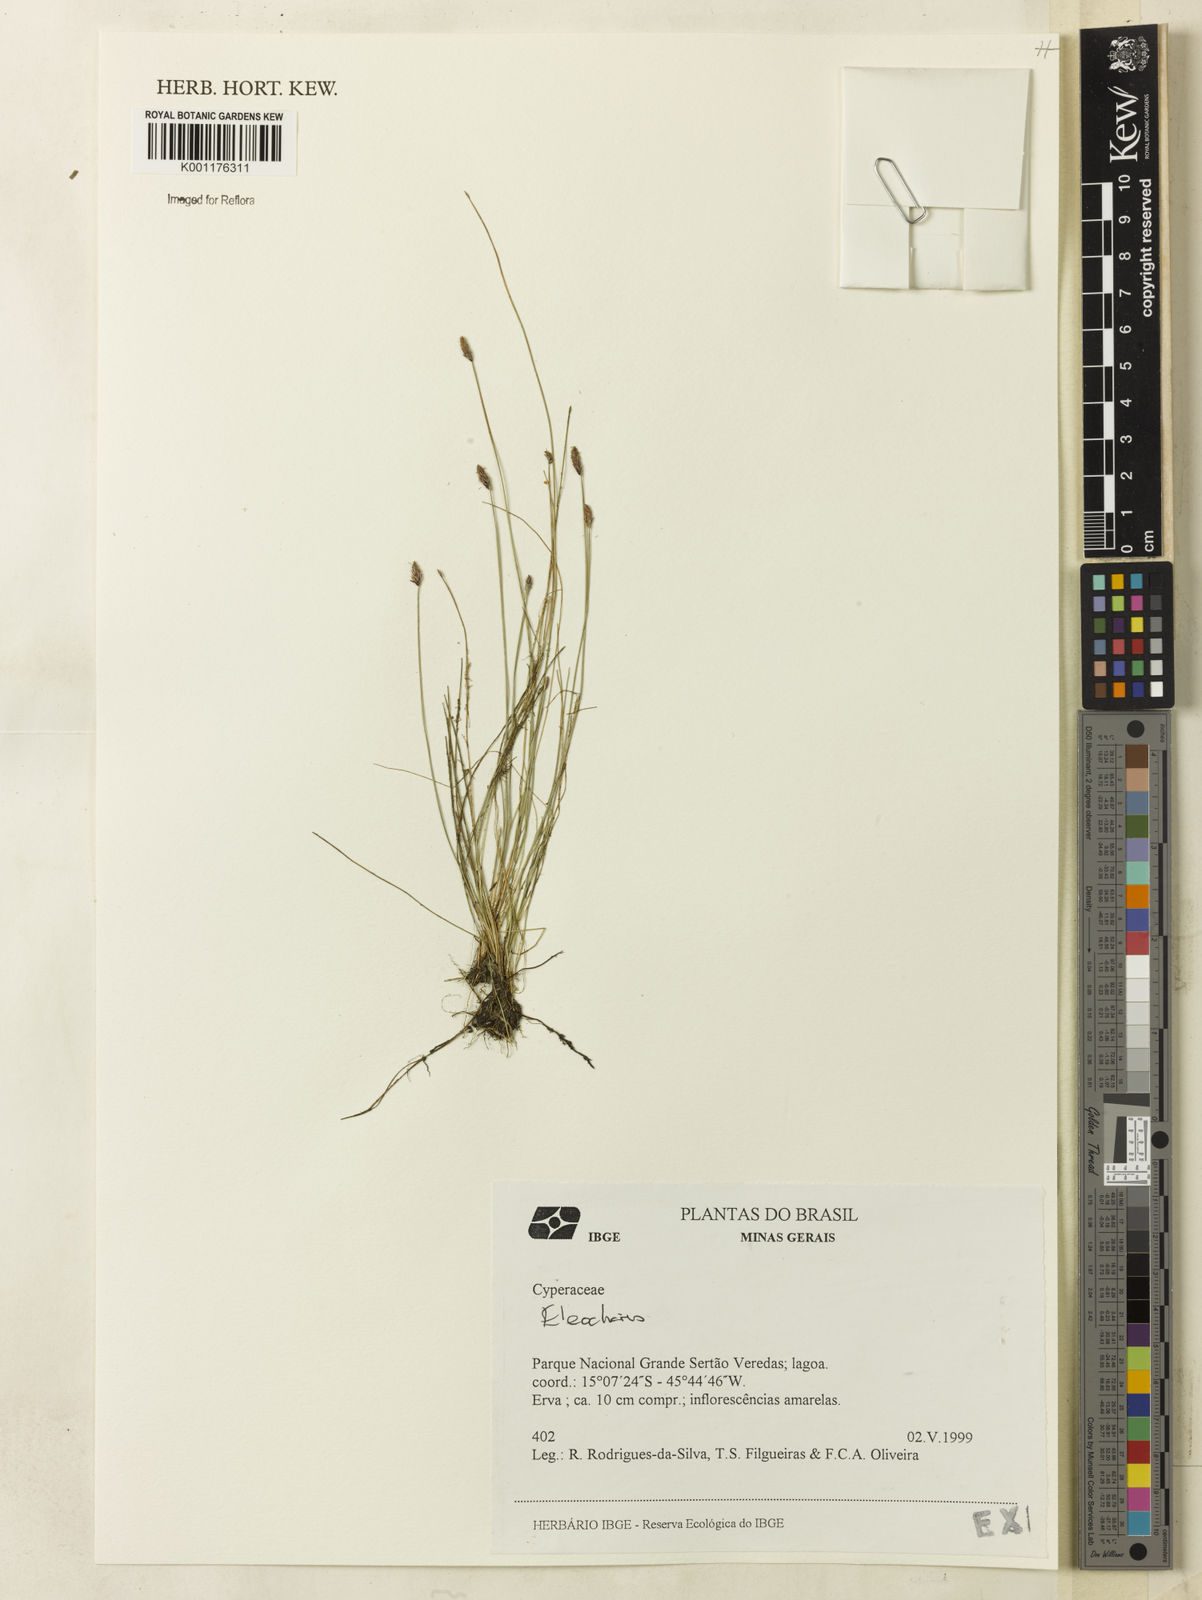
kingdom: Plantae
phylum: Tracheophyta
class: Liliopsida
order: Poales
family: Cyperaceae
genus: Eleocharis
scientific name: Eleocharis
